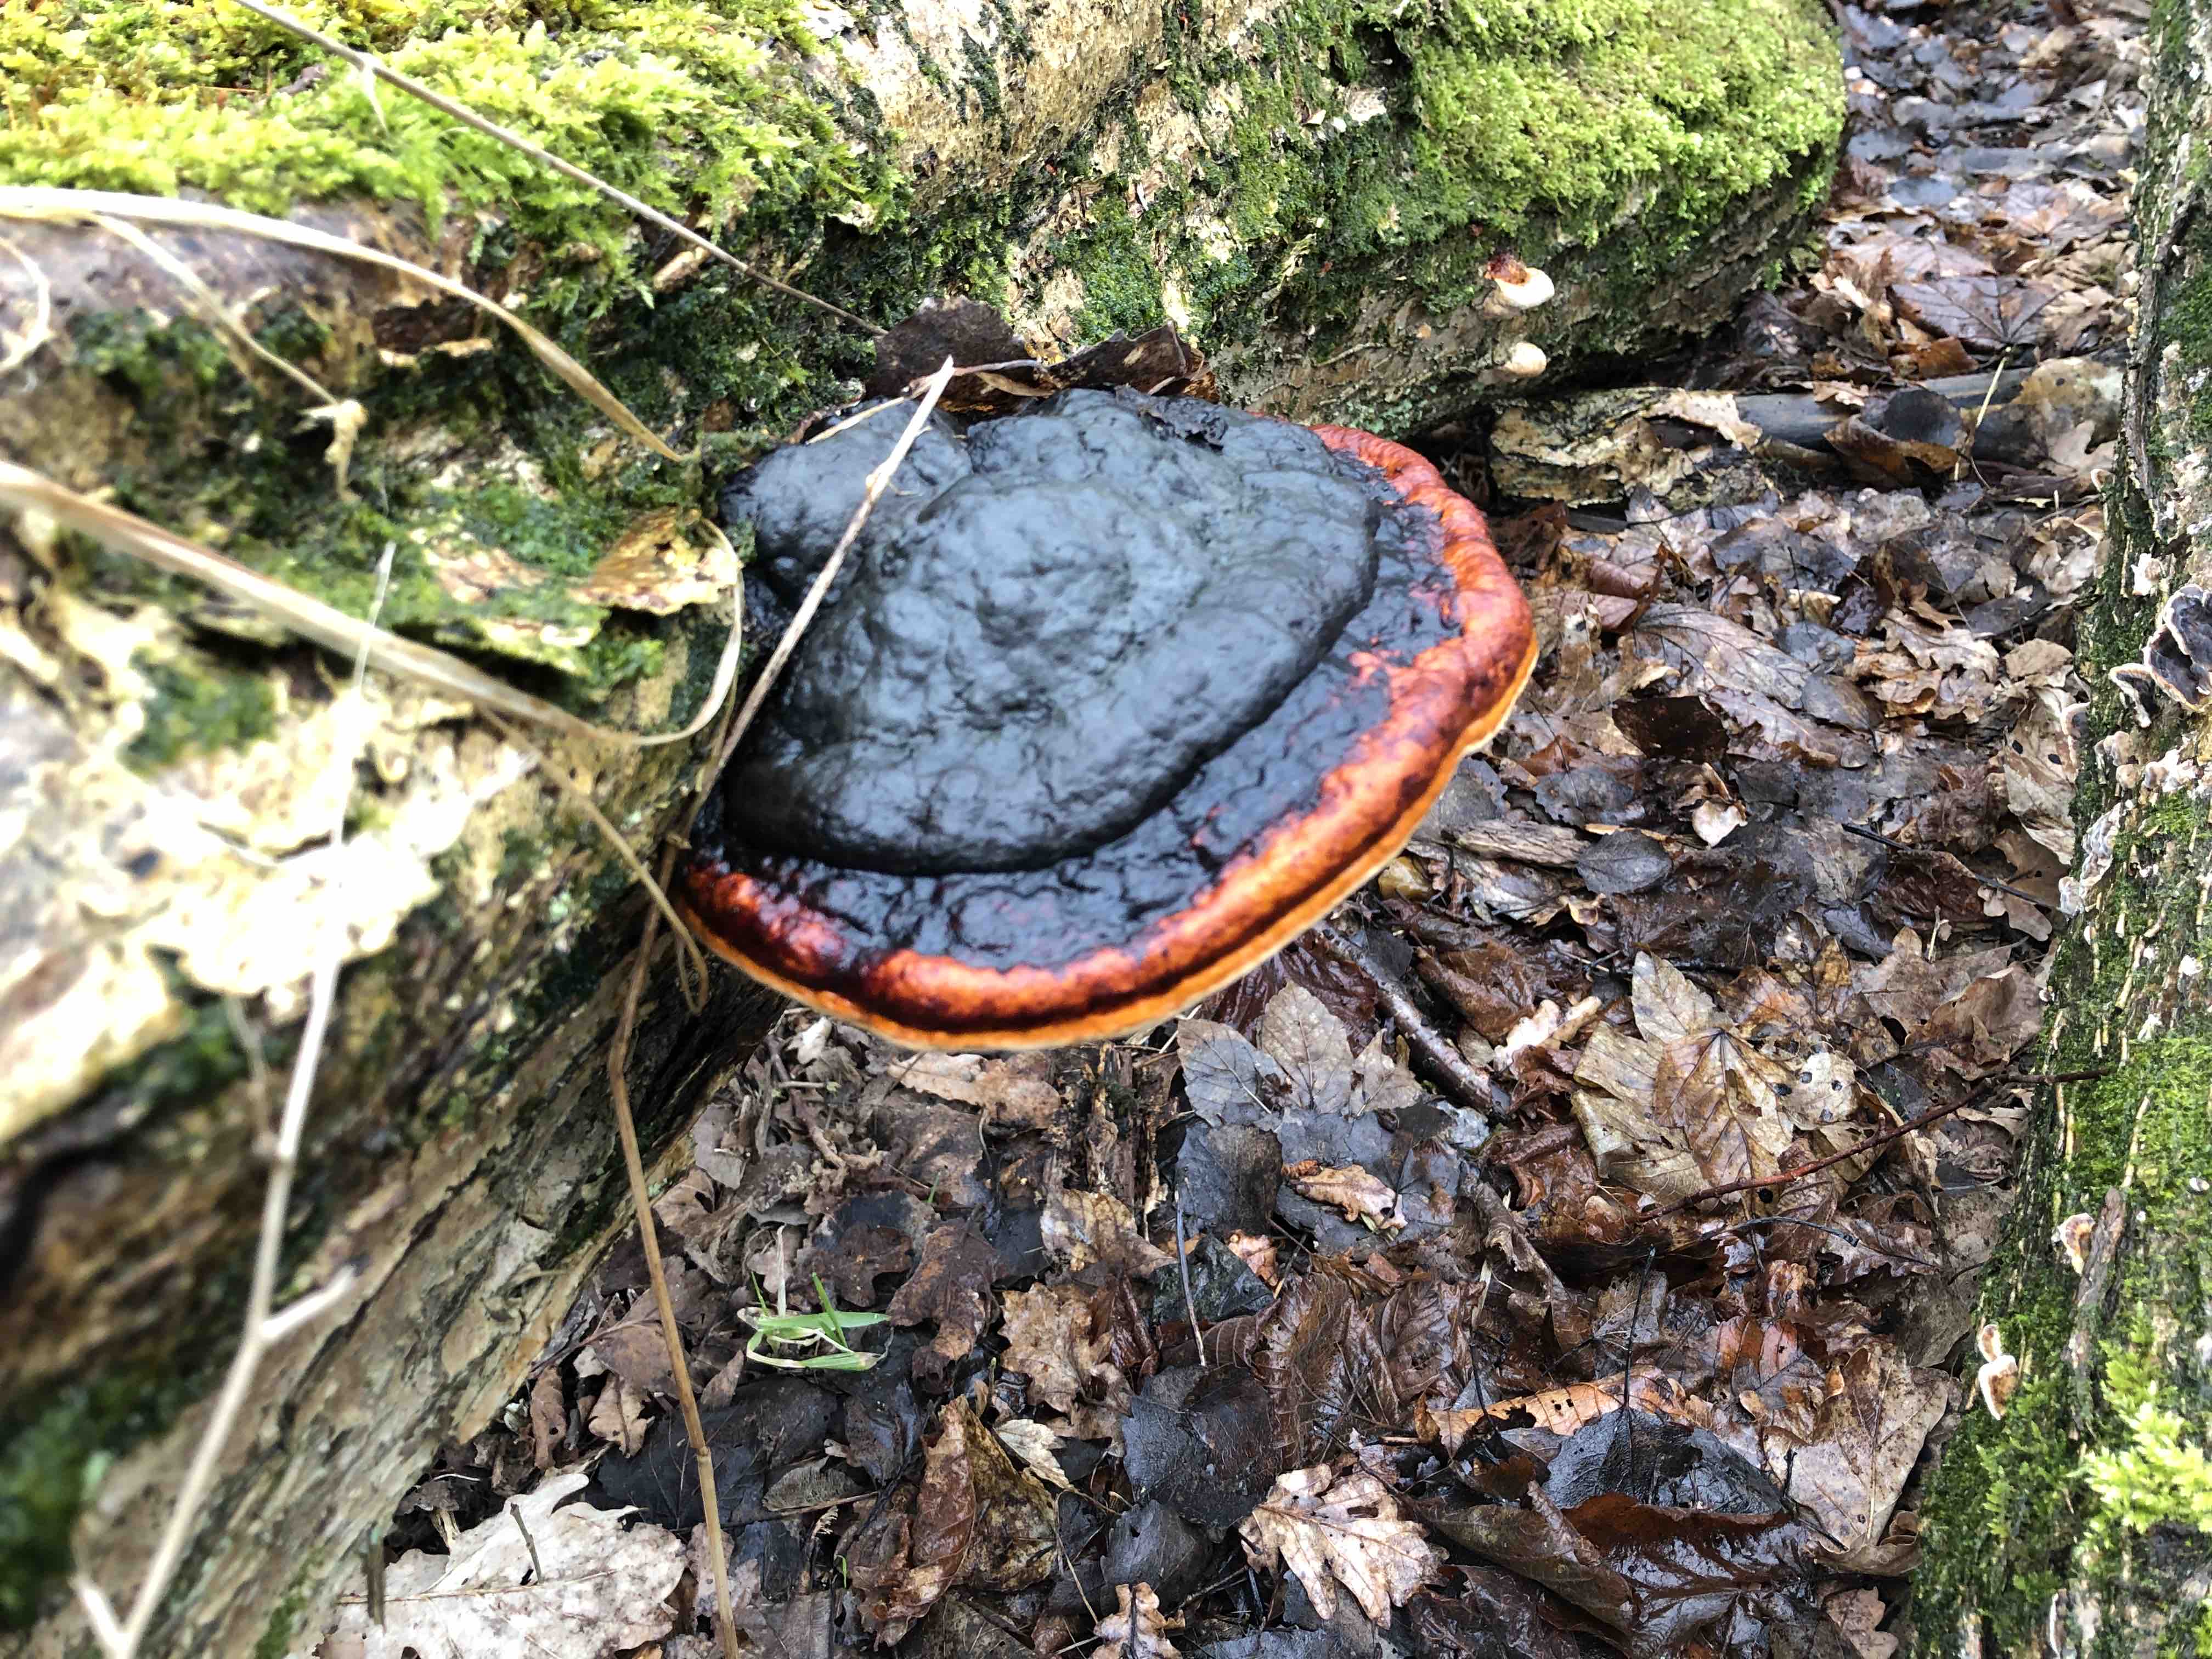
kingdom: Fungi
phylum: Basidiomycota
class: Agaricomycetes
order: Polyporales
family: Fomitopsidaceae
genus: Fomitopsis
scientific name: Fomitopsis pinicola
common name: randbæltet hovporesvamp
